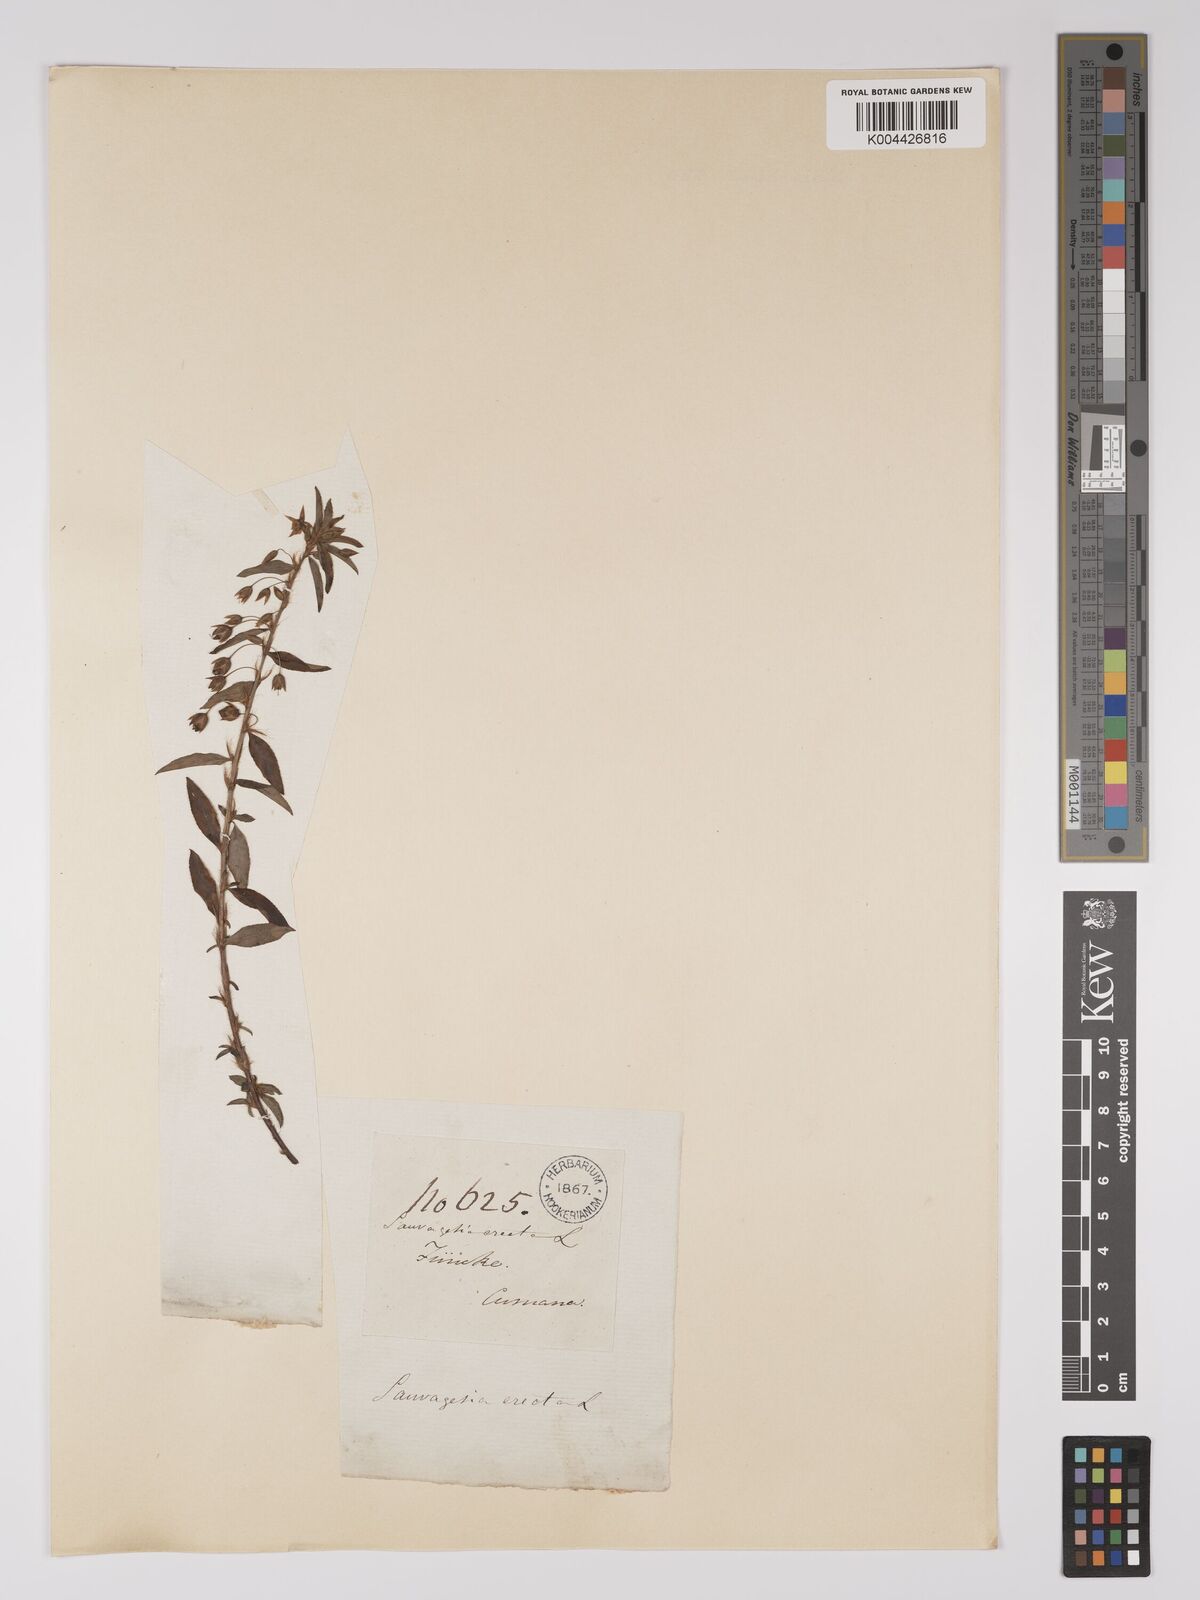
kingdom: Plantae
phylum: Tracheophyta
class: Magnoliopsida
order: Malpighiales
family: Ochnaceae
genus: Sauvagesia
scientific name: Sauvagesia erecta
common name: Creole tea
